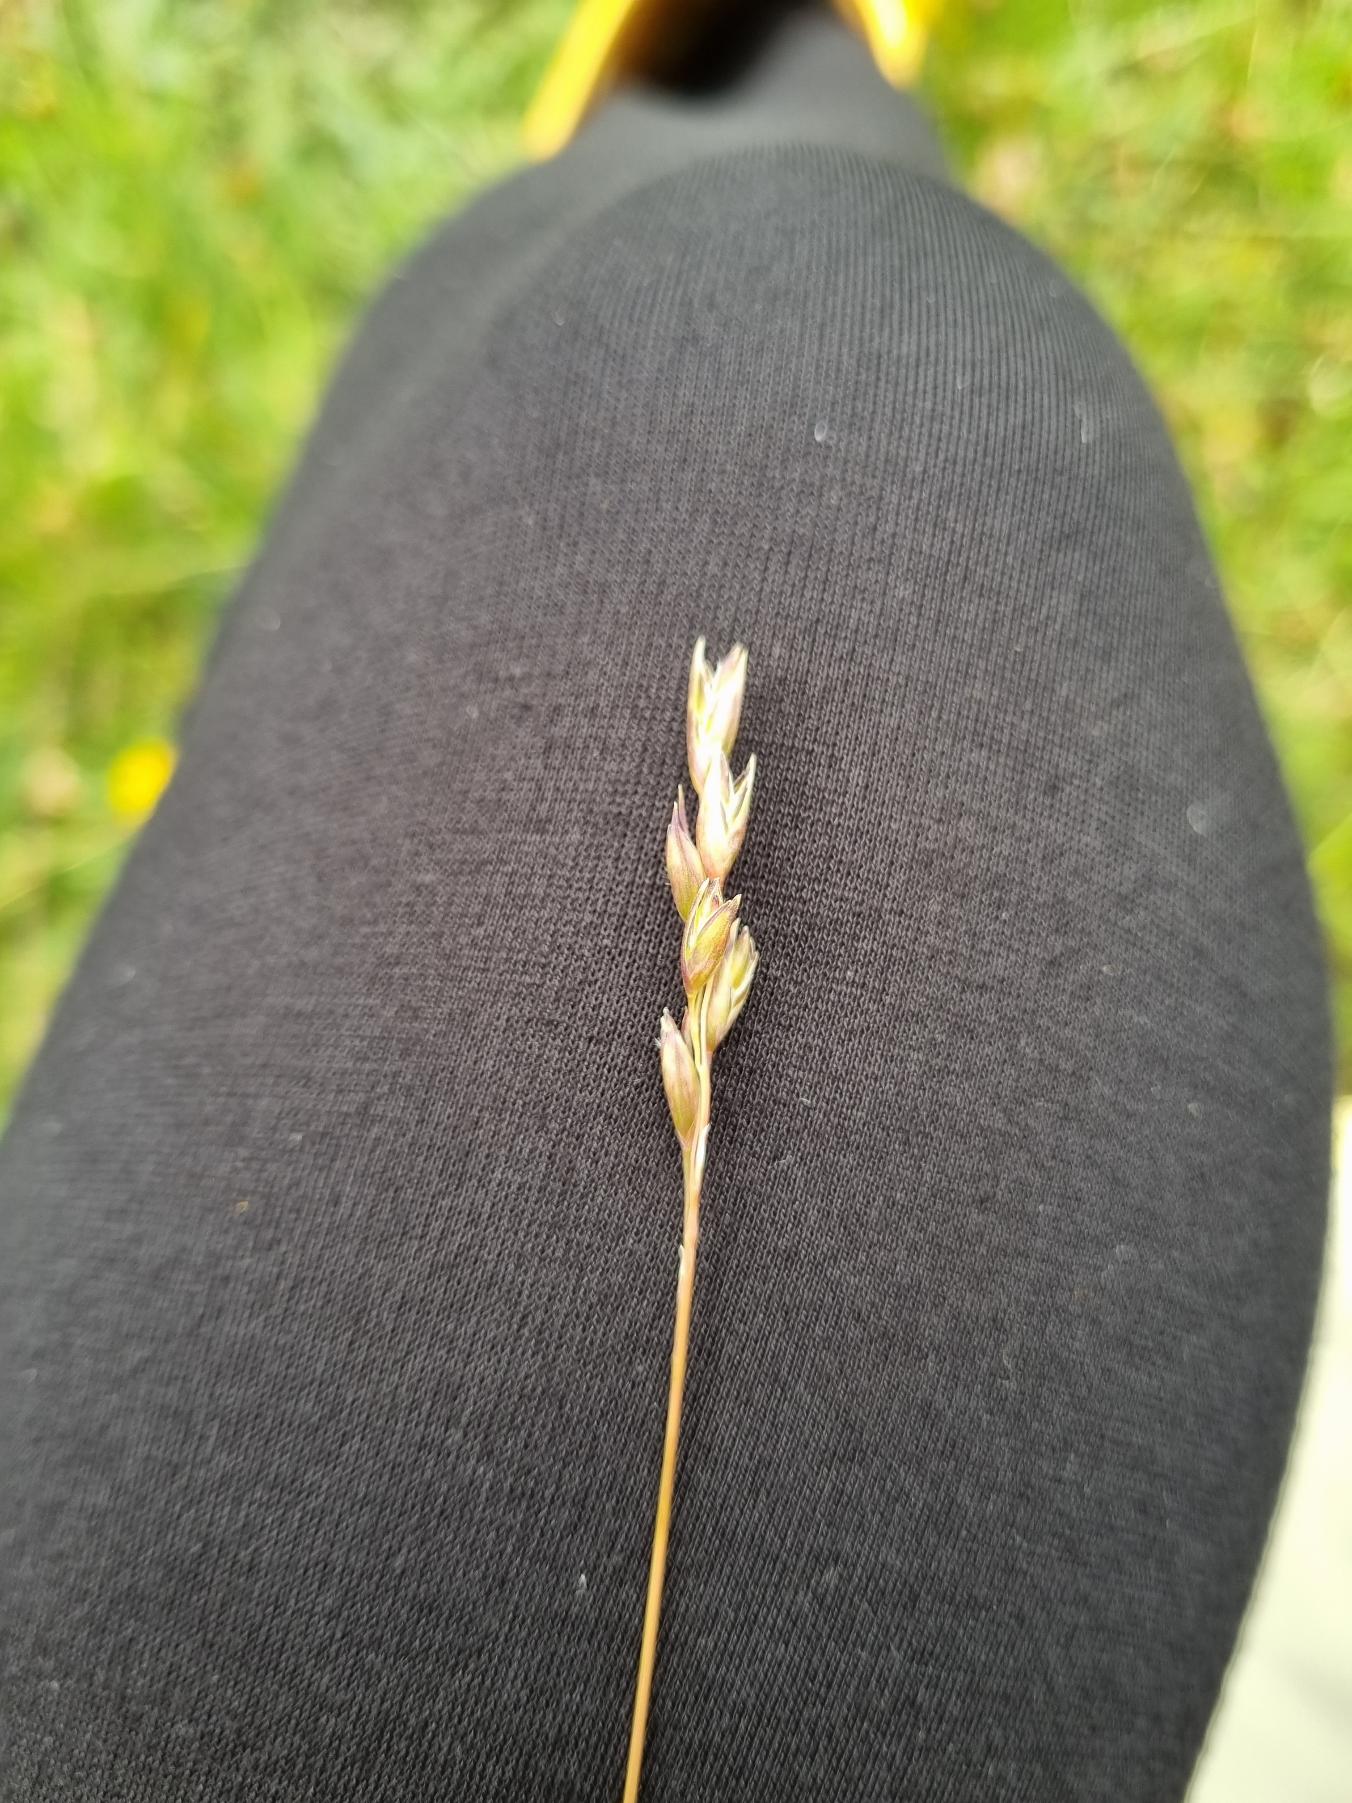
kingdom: Plantae
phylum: Tracheophyta
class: Liliopsida
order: Poales
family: Poaceae
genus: Danthonia
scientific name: Danthonia decumbens
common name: Tandbælg
